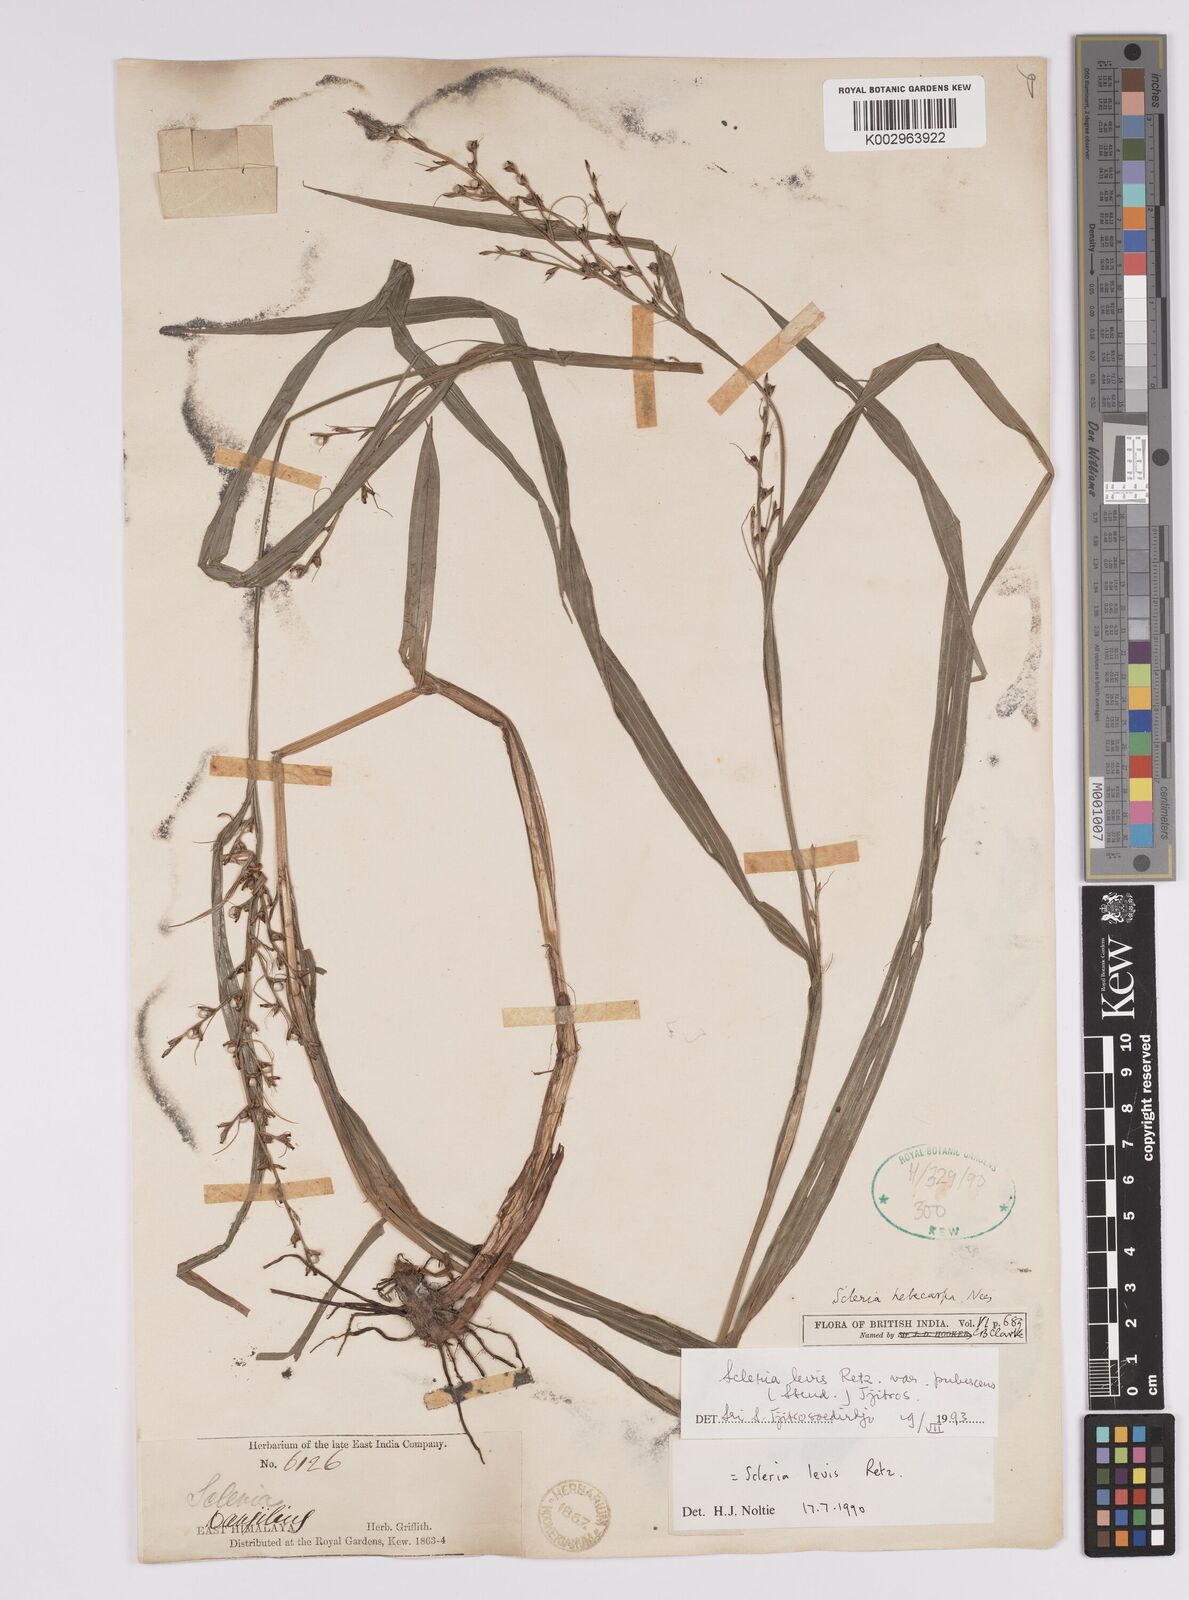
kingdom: Plantae
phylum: Tracheophyta
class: Liliopsida
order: Poales
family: Cyperaceae
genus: Scleria
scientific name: Scleria levis
